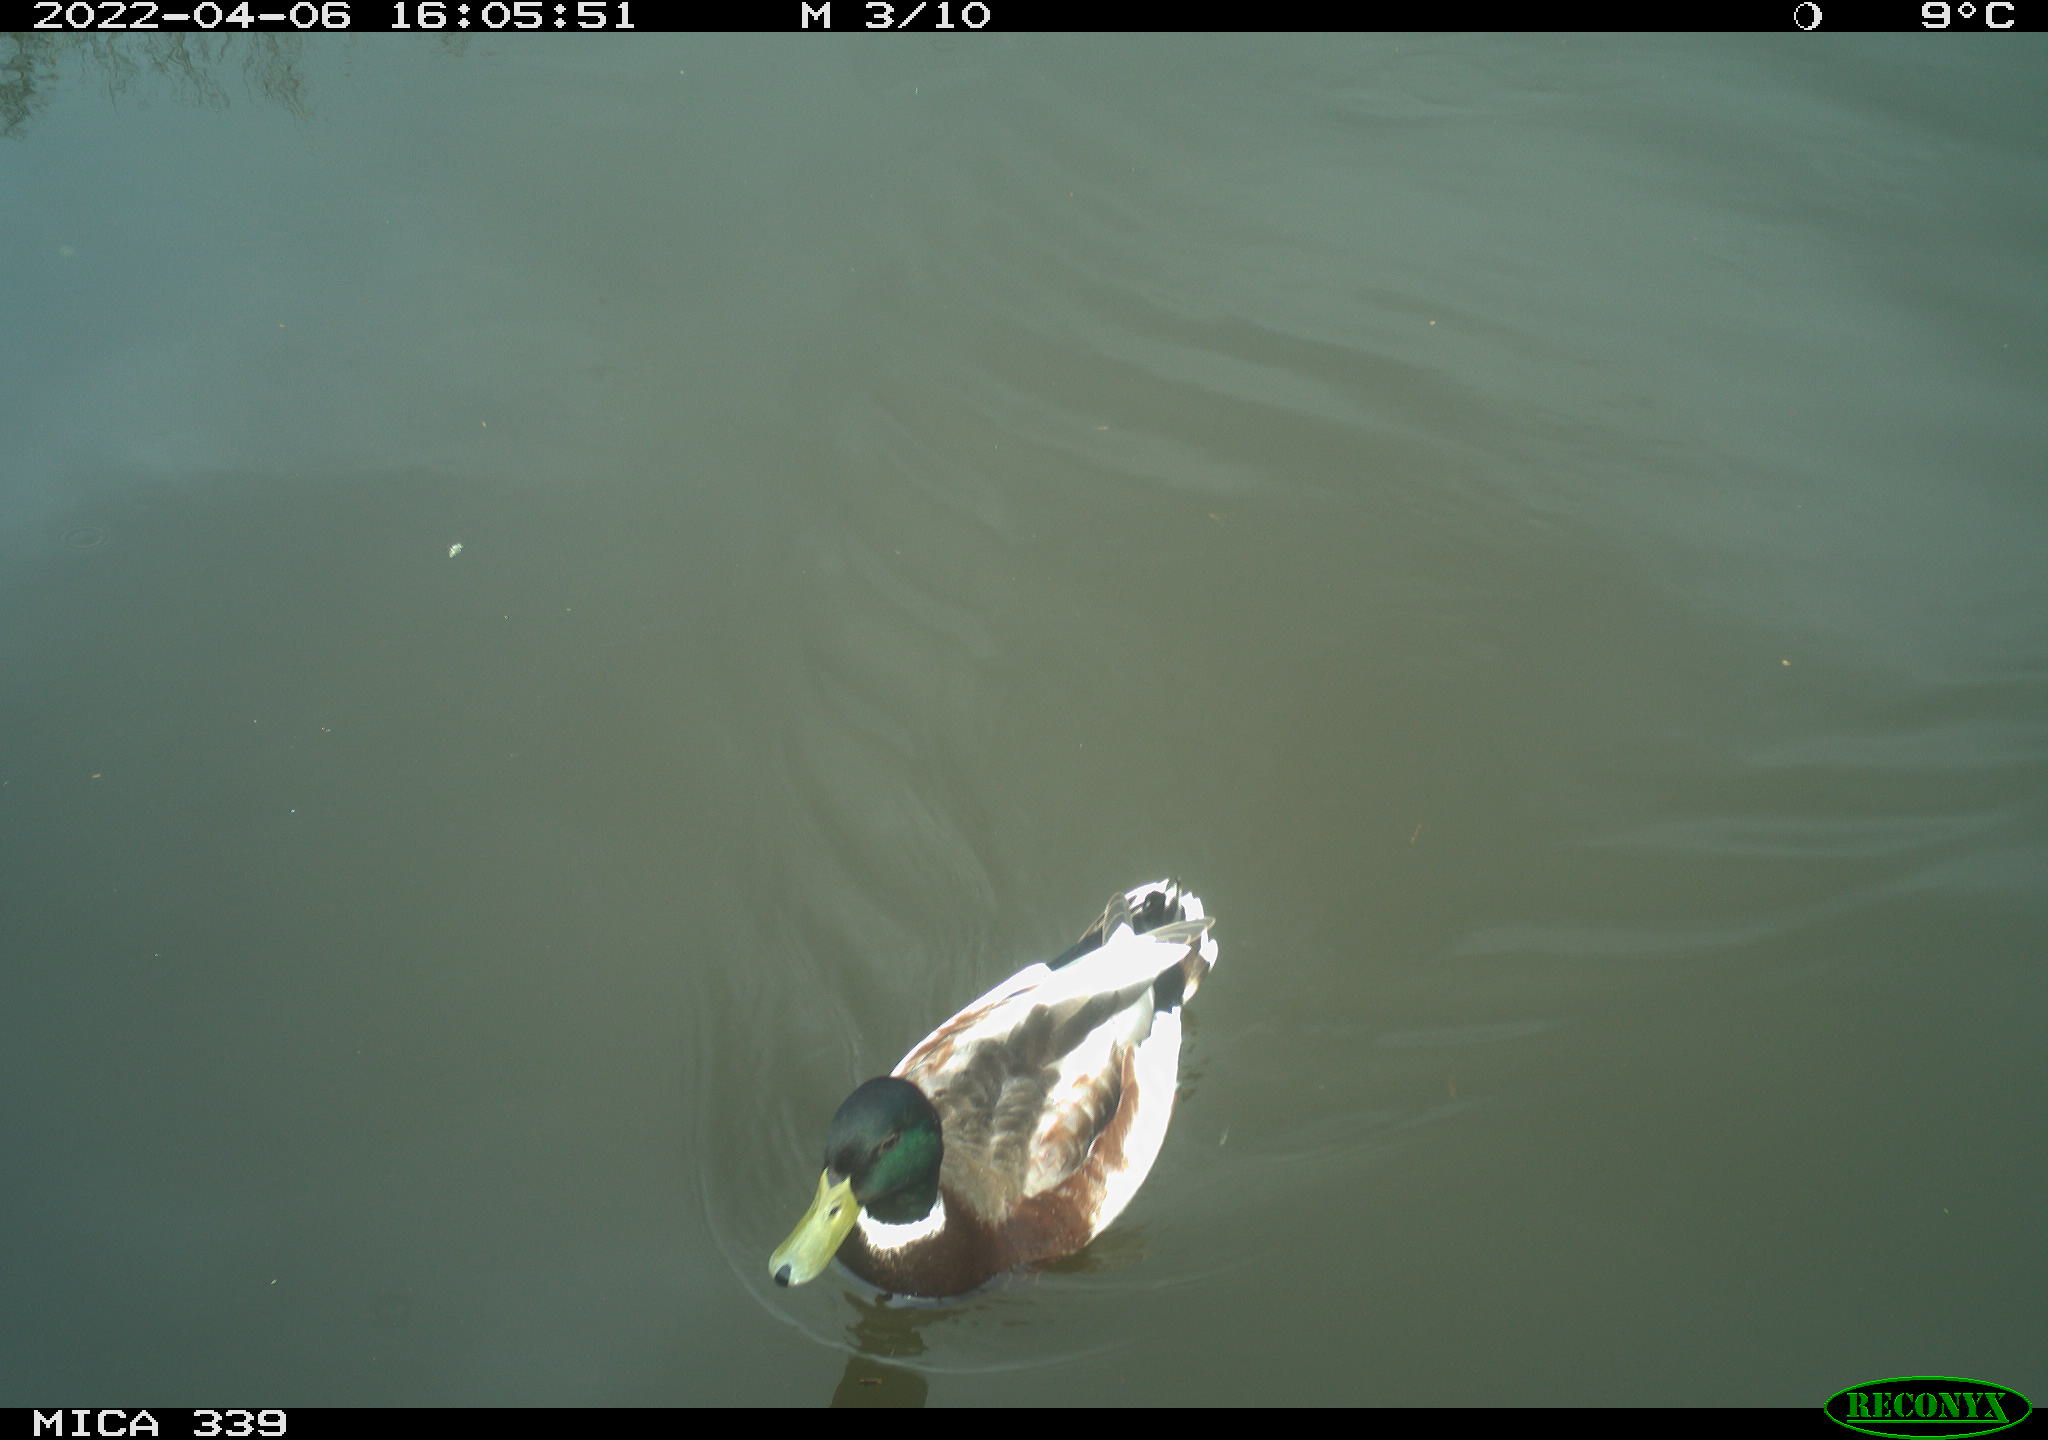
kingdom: Animalia
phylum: Chordata
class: Aves
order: Anseriformes
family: Anatidae
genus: Anas
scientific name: Anas platyrhynchos
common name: Mallard
